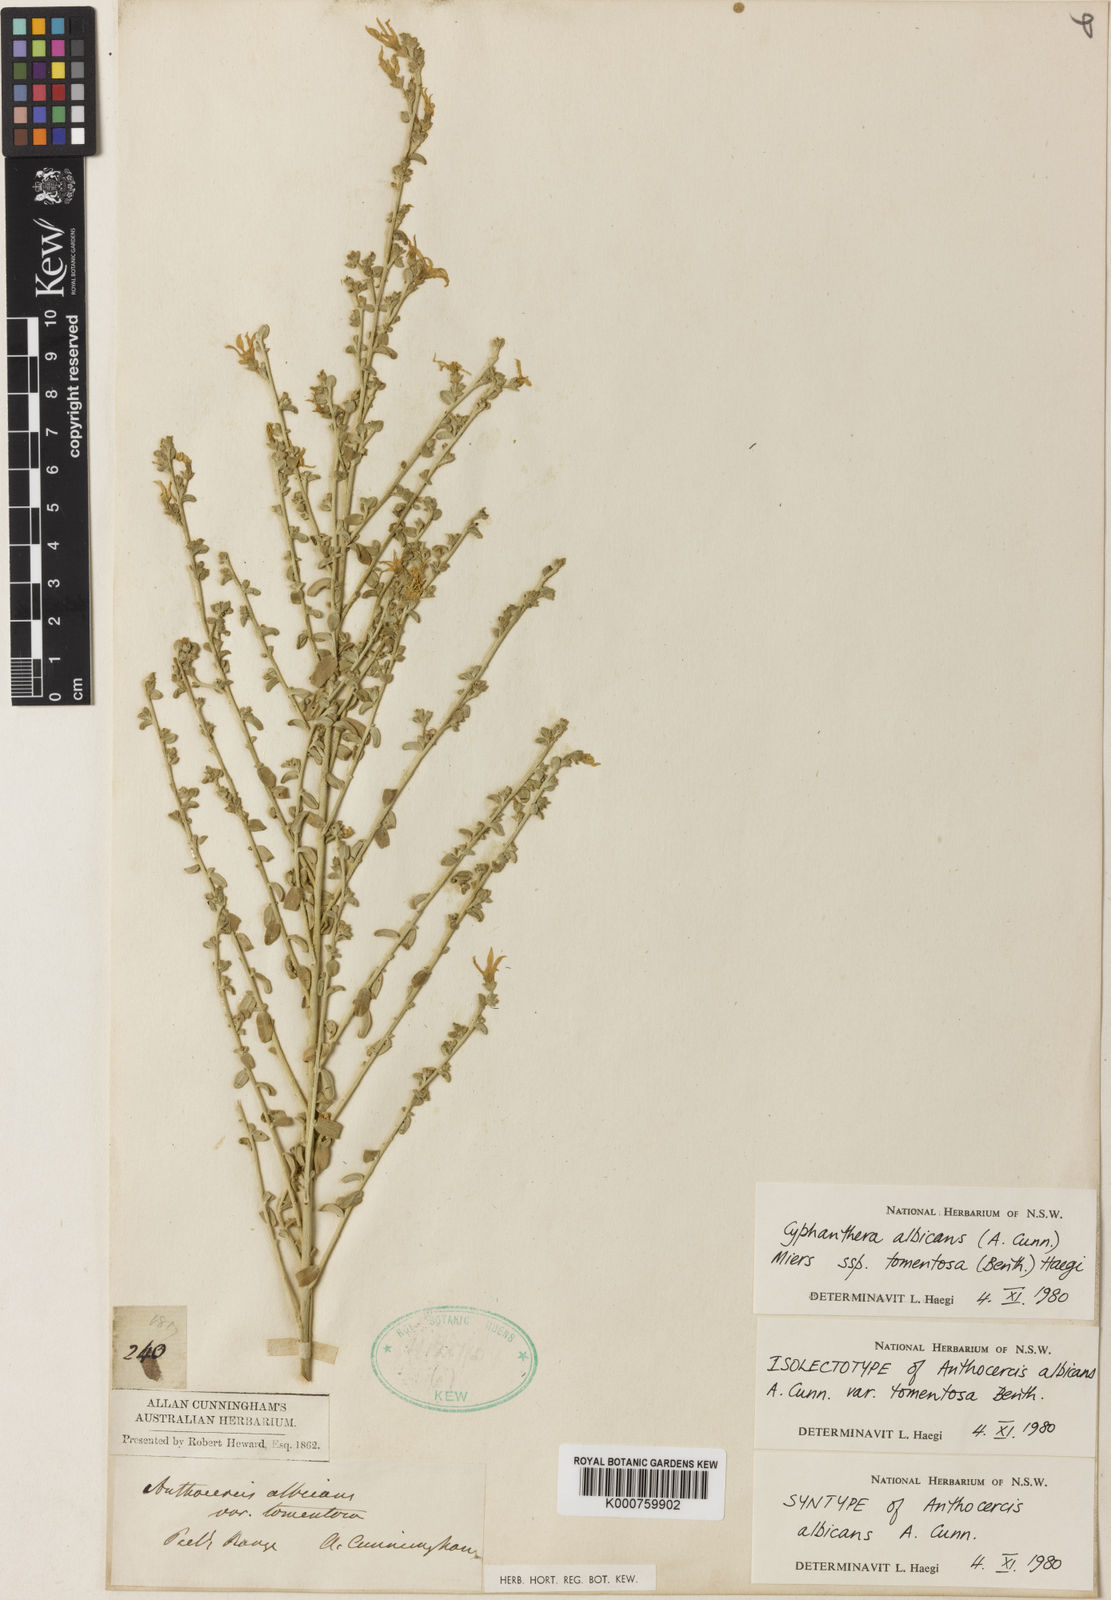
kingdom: Plantae
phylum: Tracheophyta
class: Magnoliopsida
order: Solanales
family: Solanaceae
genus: Cyphanthera
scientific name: Cyphanthera albicans
